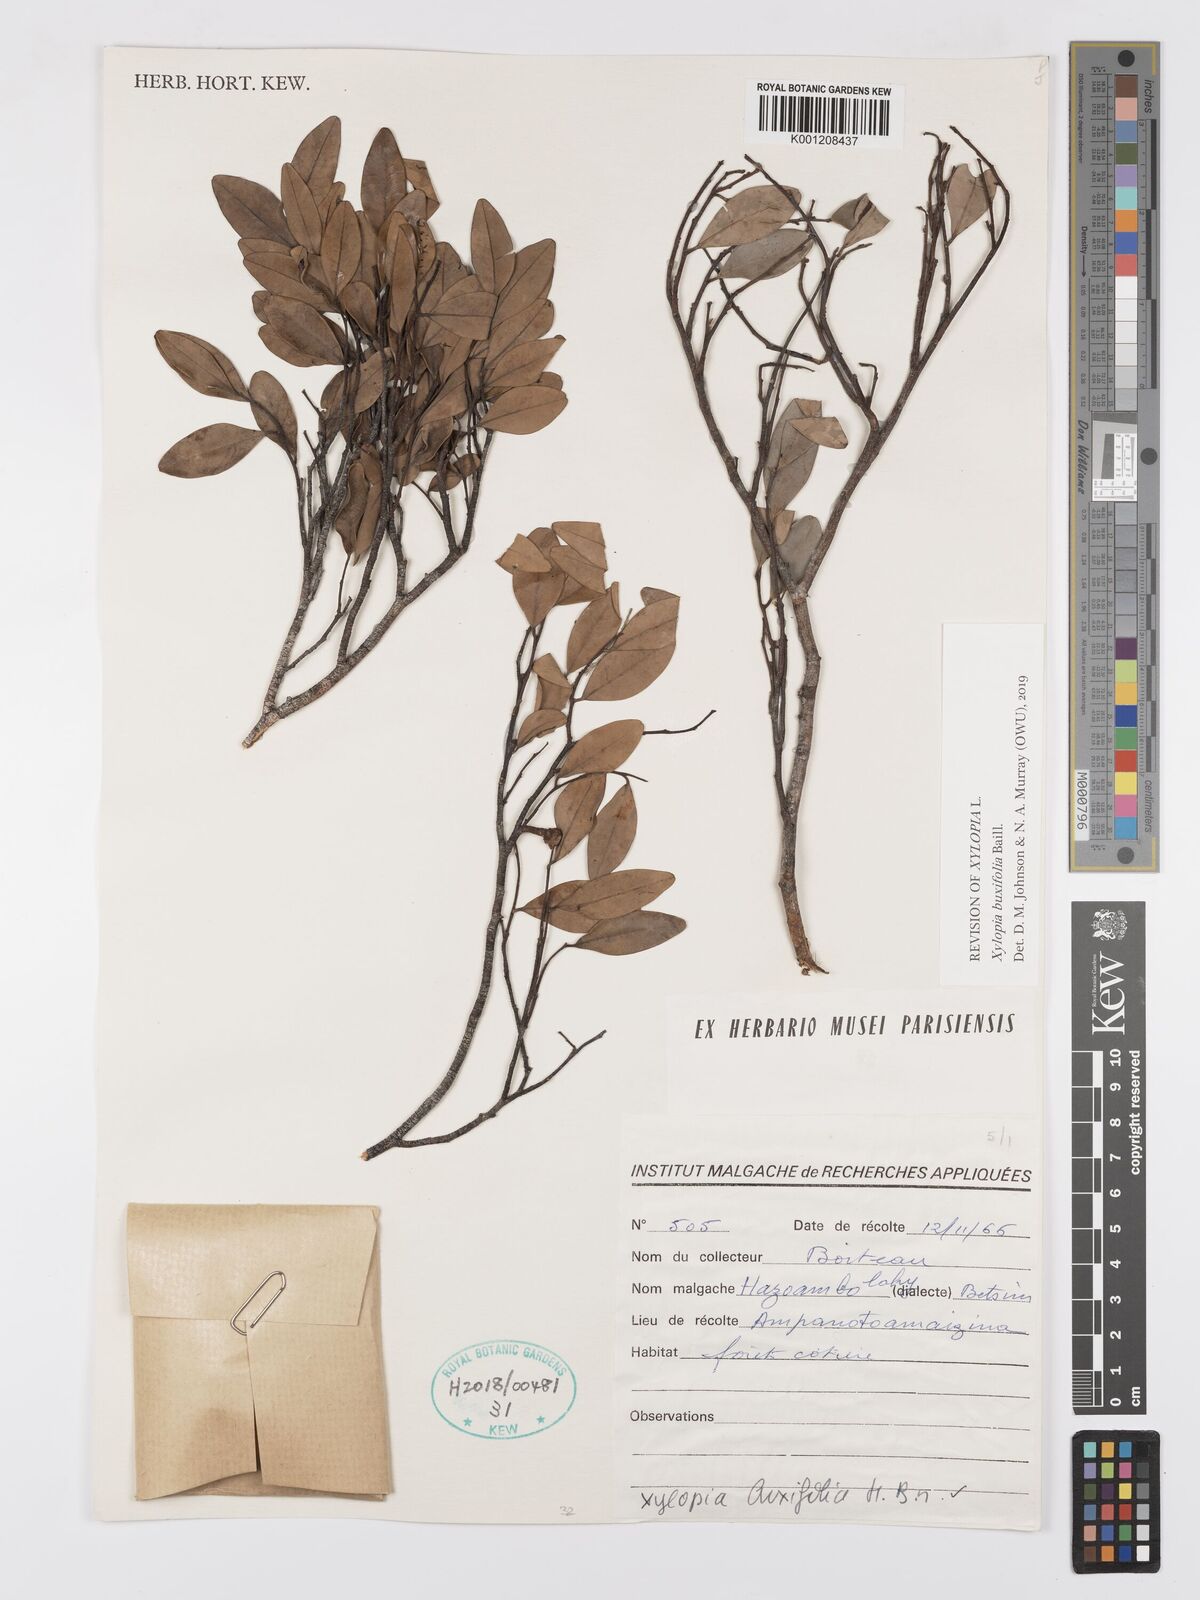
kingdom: Plantae
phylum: Tracheophyta
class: Magnoliopsida
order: Magnoliales
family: Annonaceae
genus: Xylopia
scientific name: Xylopia buxifolia
